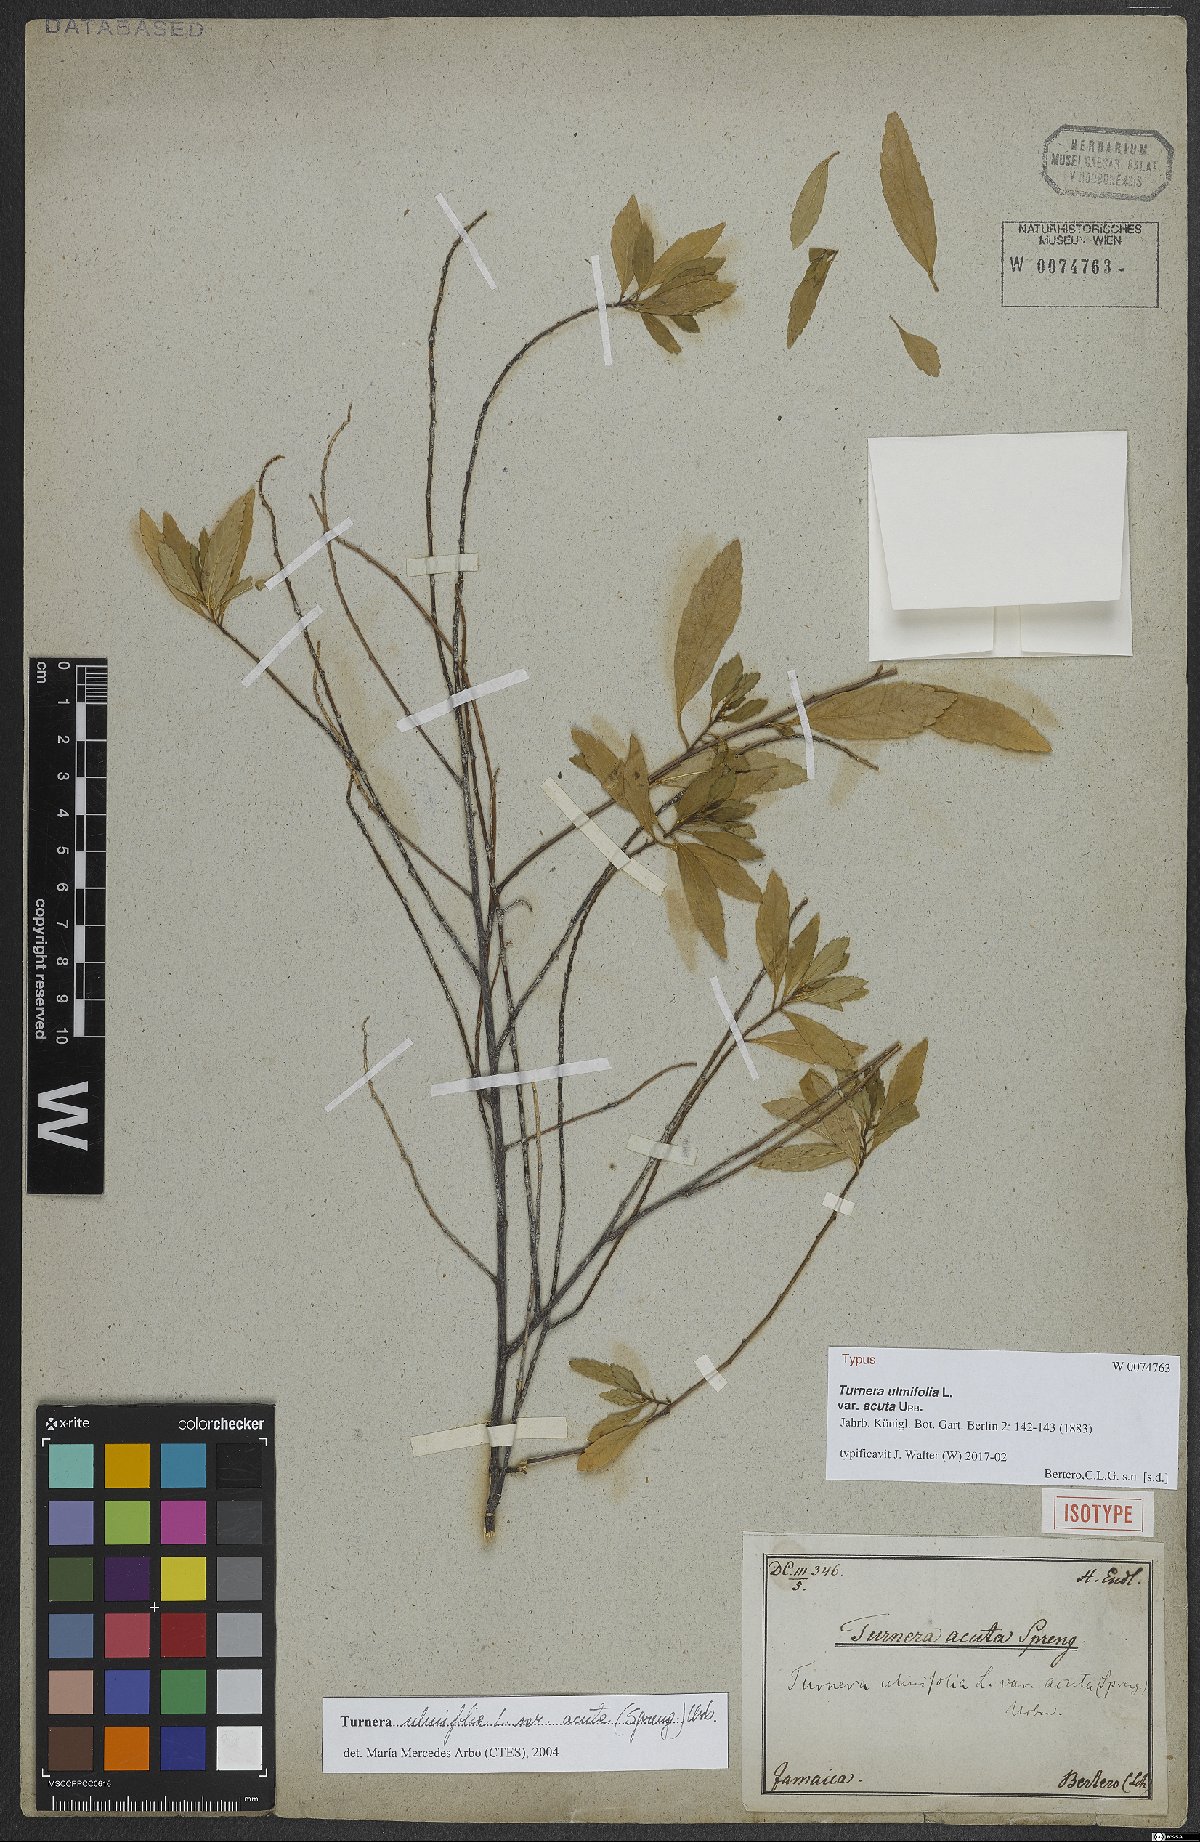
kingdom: Plantae
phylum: Tracheophyta
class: Magnoliopsida
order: Malpighiales
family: Turneraceae
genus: Turnera
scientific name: Turnera
